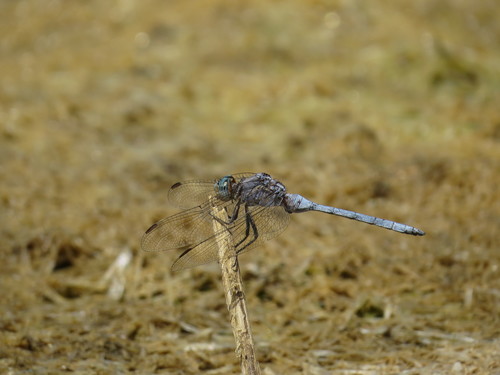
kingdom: Animalia
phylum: Arthropoda
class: Insecta
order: Odonata
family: Libellulidae
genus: Orthetrum
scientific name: Orthetrum chrysostigma
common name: Epaulet skimmer
